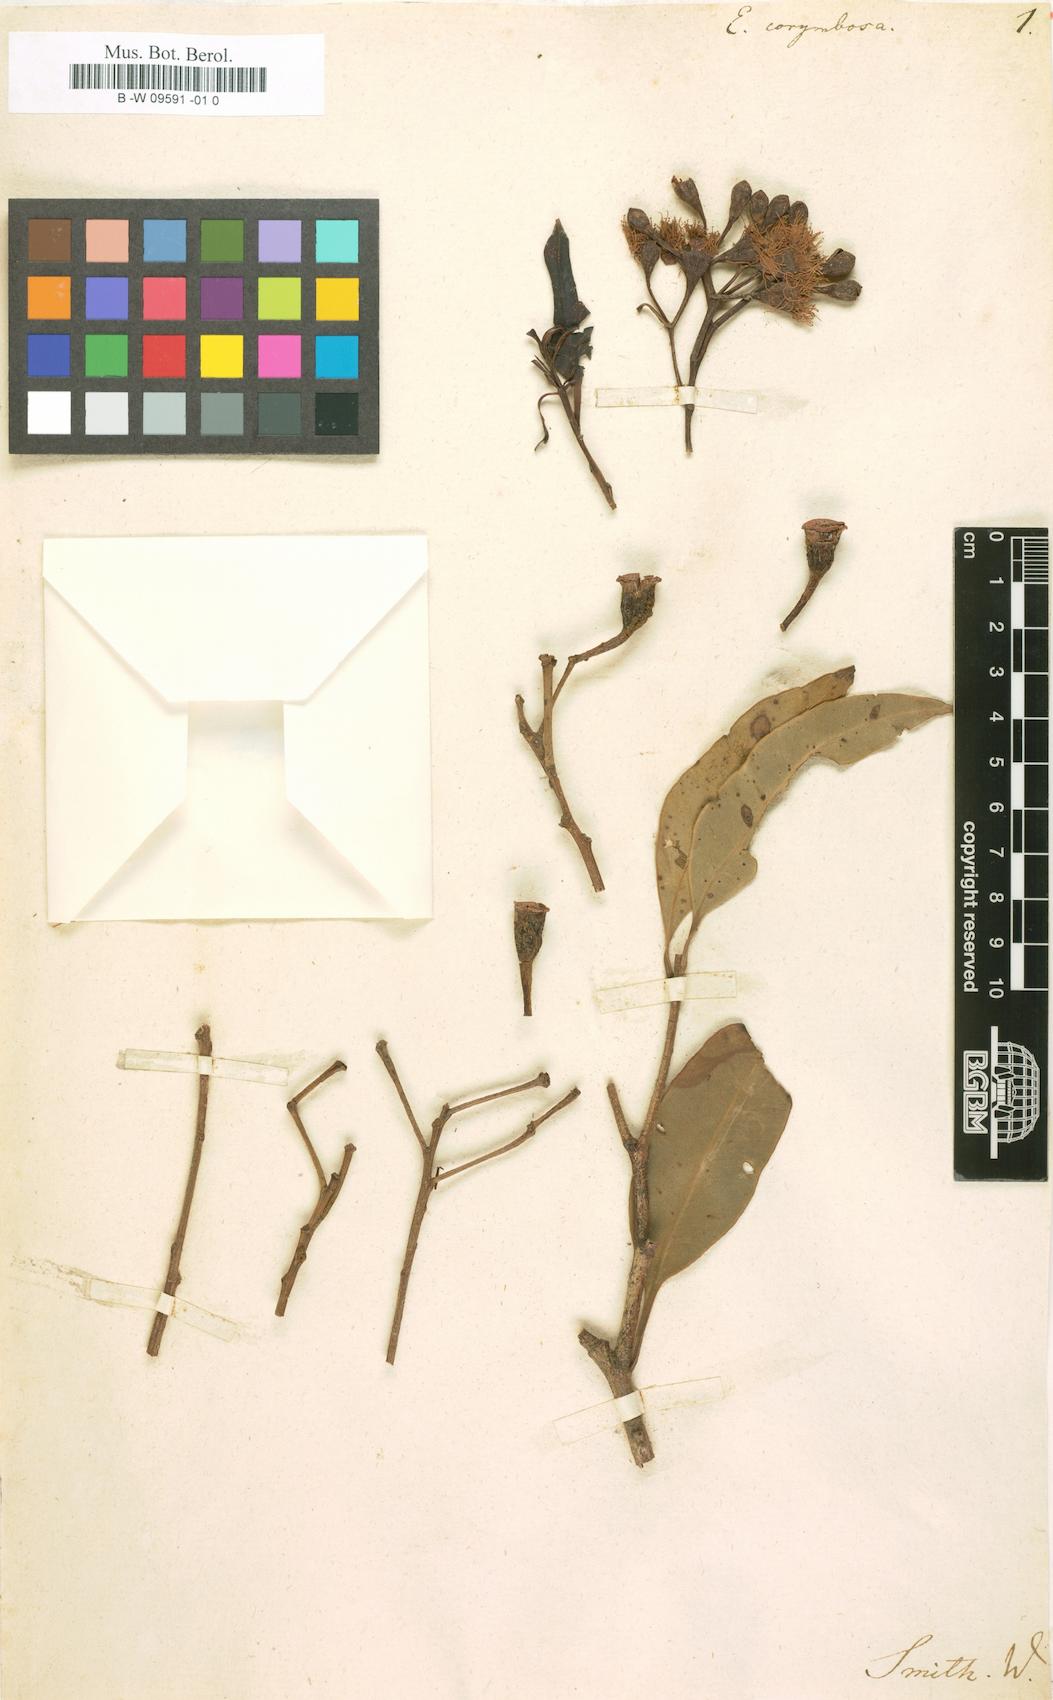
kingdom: Plantae
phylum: Tracheophyta
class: Magnoliopsida
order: Myrtales
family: Myrtaceae
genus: Corymbia
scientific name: Corymbia gummifera
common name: Red bloodwood
